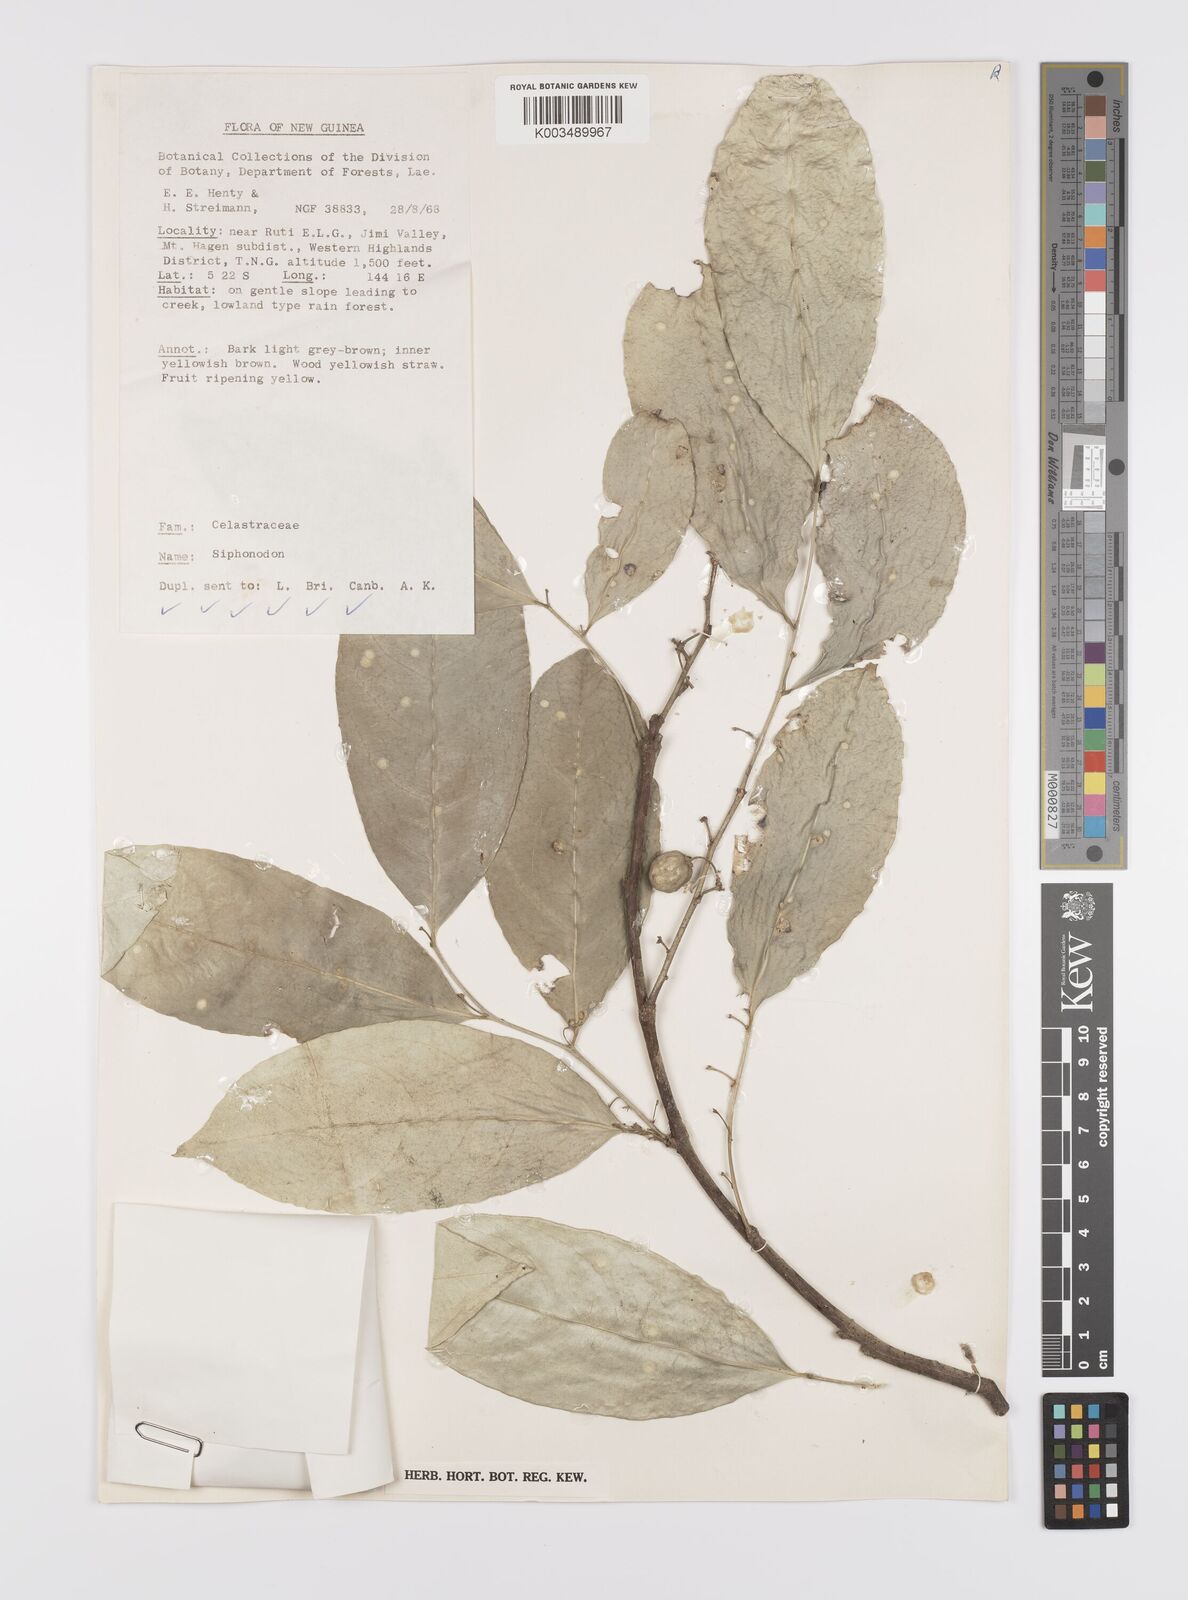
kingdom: Plantae
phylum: Tracheophyta
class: Magnoliopsida
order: Celastrales
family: Celastraceae
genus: Siphonodon
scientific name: Siphonodon
